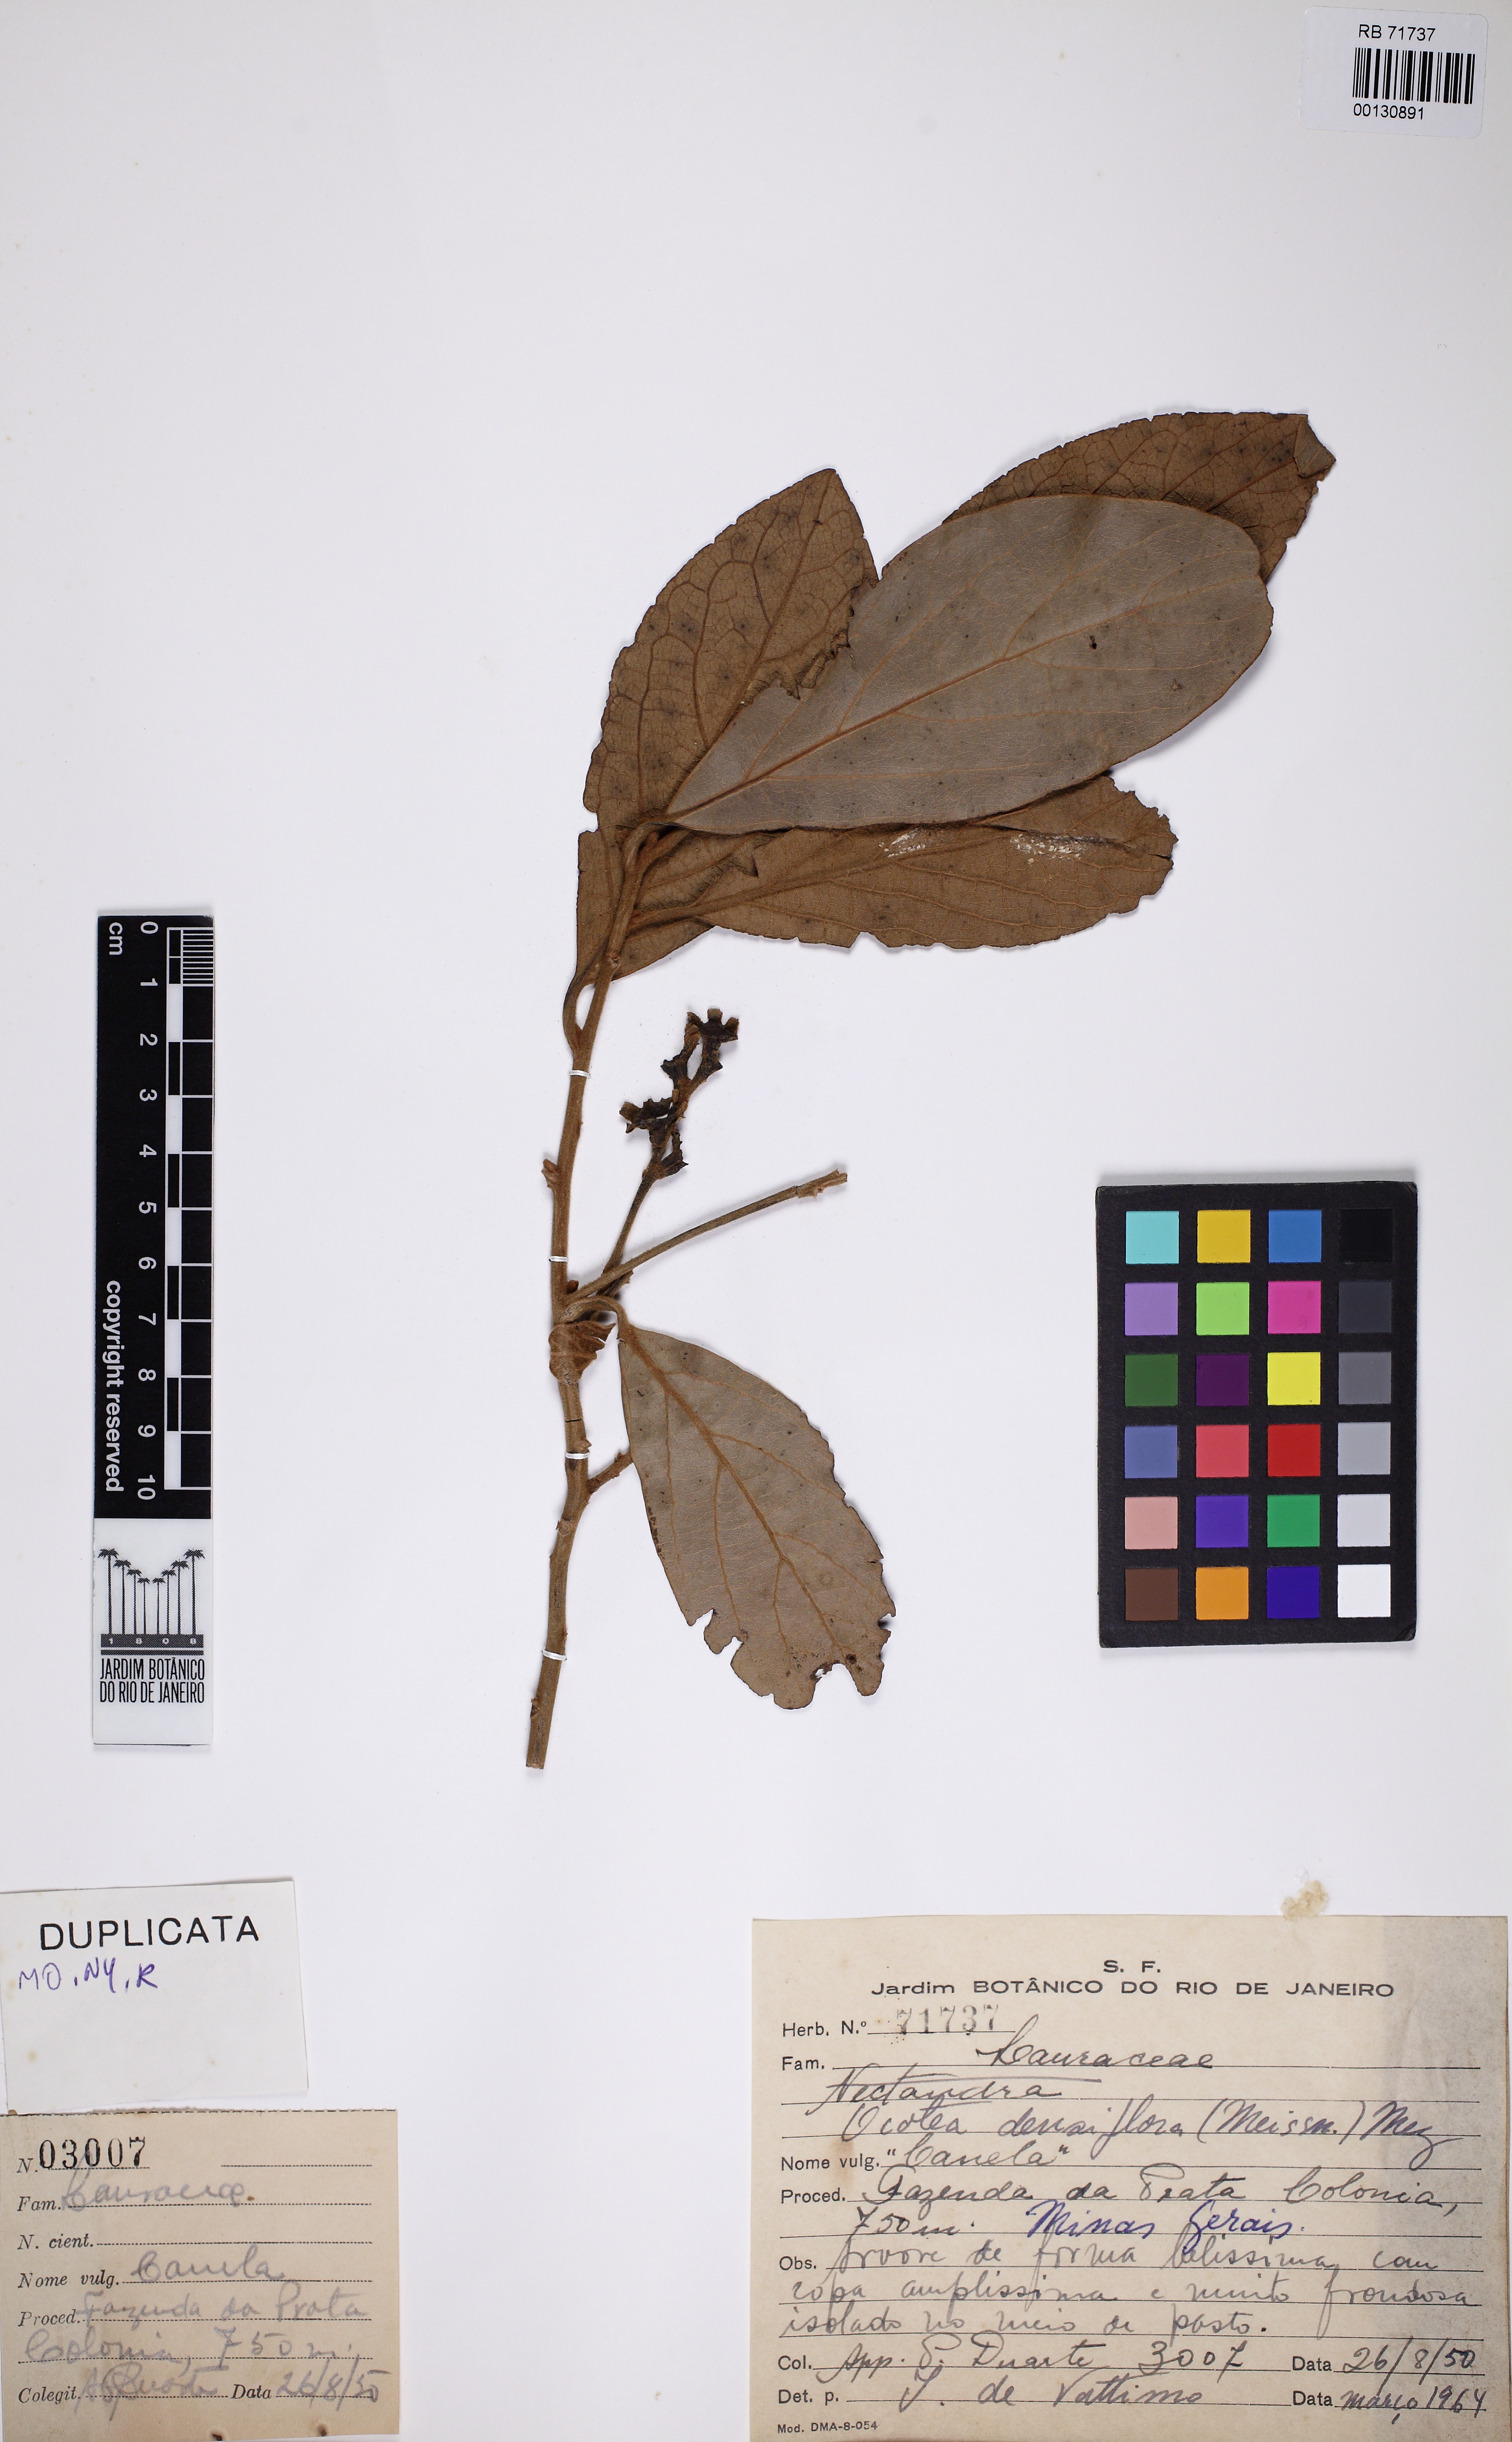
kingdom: Plantae
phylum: Tracheophyta
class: Magnoliopsida
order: Laurales
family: Lauraceae
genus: Ocotea
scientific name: Ocotea densiflora
